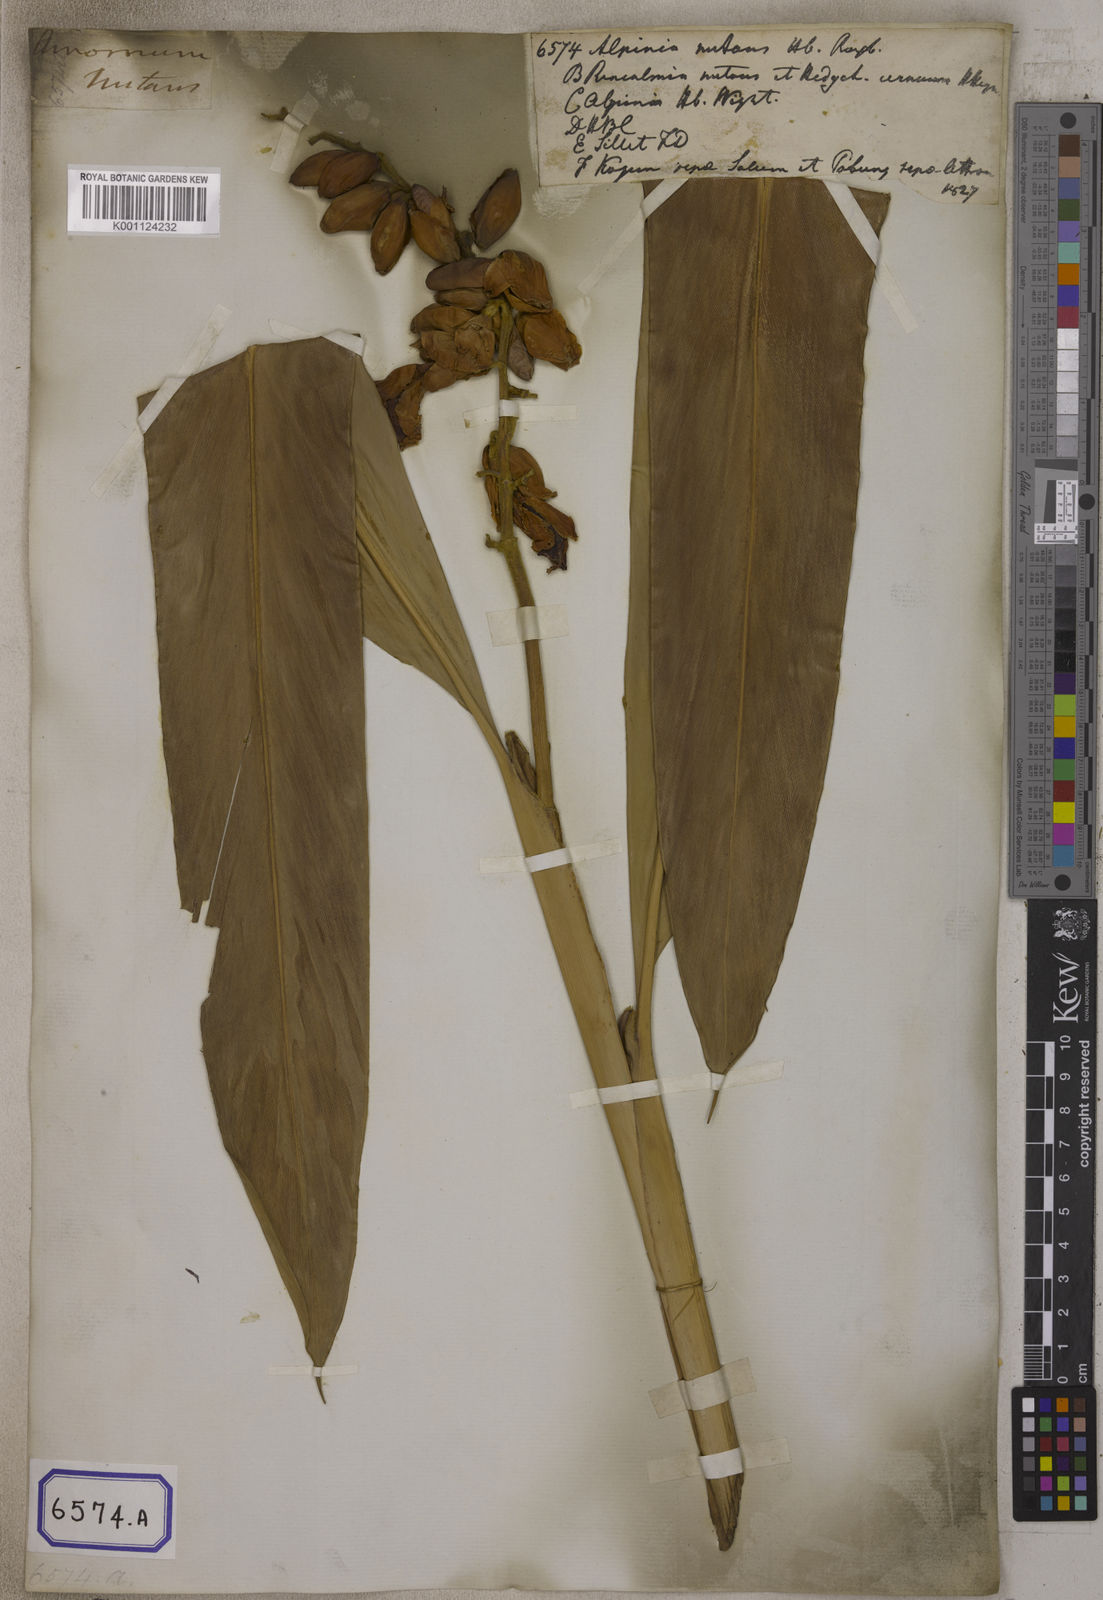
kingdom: Plantae
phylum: Tracheophyta
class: Liliopsida
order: Zingiberales
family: Zingiberaceae
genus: Alpinia
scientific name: Alpinia nutans
